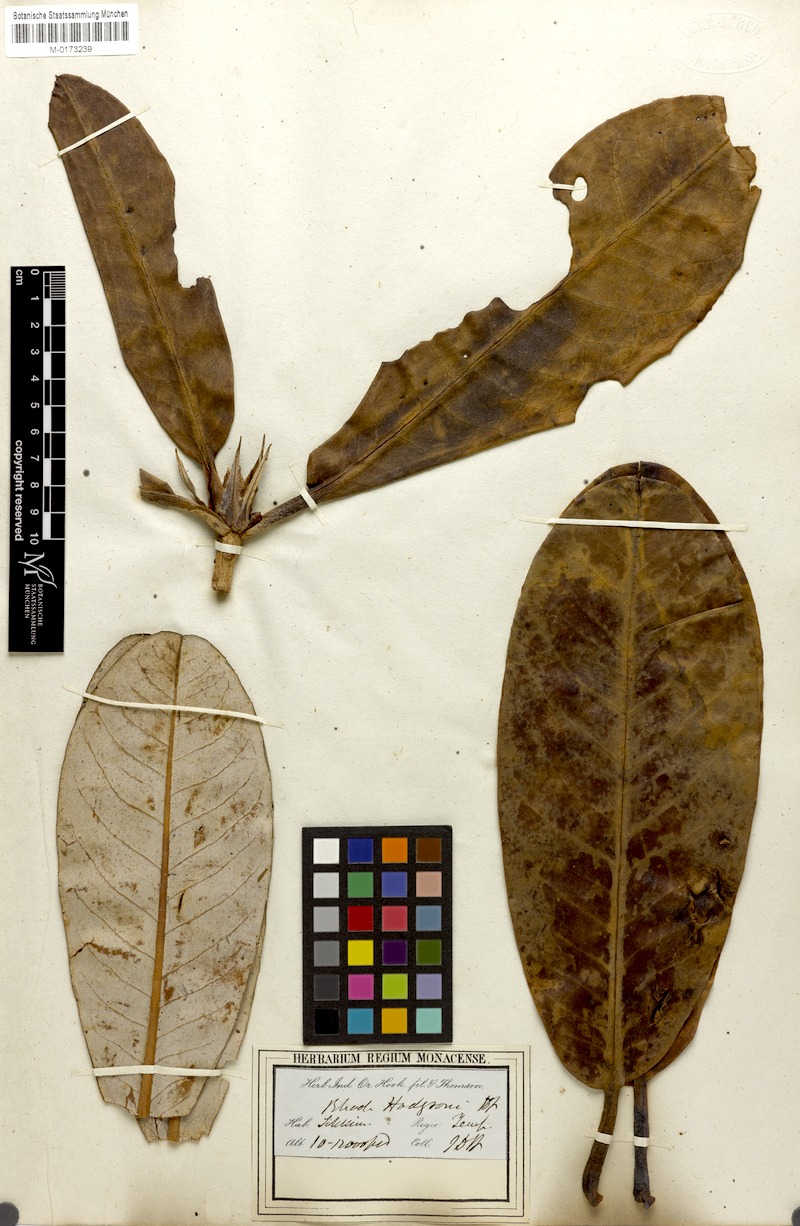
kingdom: Plantae
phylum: Tracheophyta
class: Magnoliopsida
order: Ericales
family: Ericaceae
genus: Rhododendron
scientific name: Rhododendron hodgsonii
